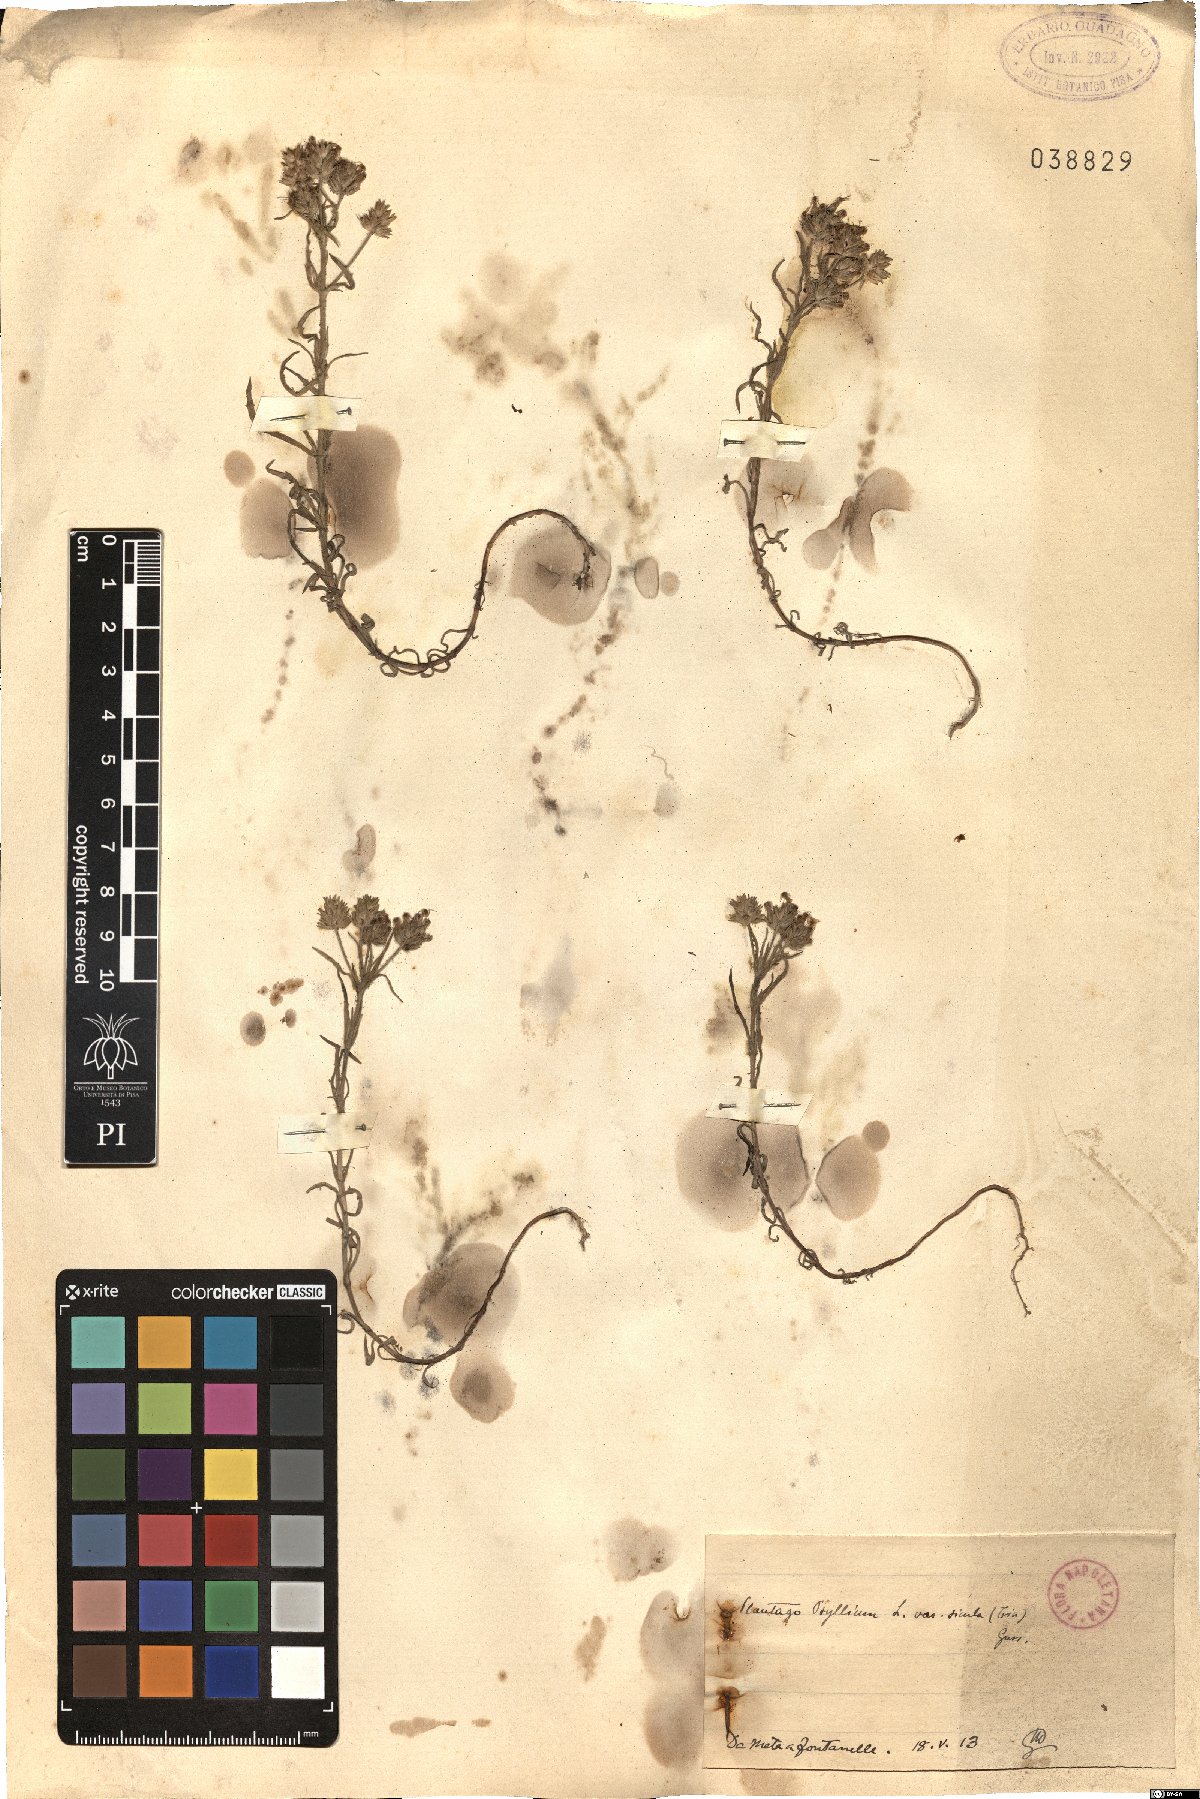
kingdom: Plantae
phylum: Tracheophyta
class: Magnoliopsida
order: Lamiales
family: Plantaginaceae
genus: Plantago
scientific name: Plantago afra
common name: Glandular plantain
